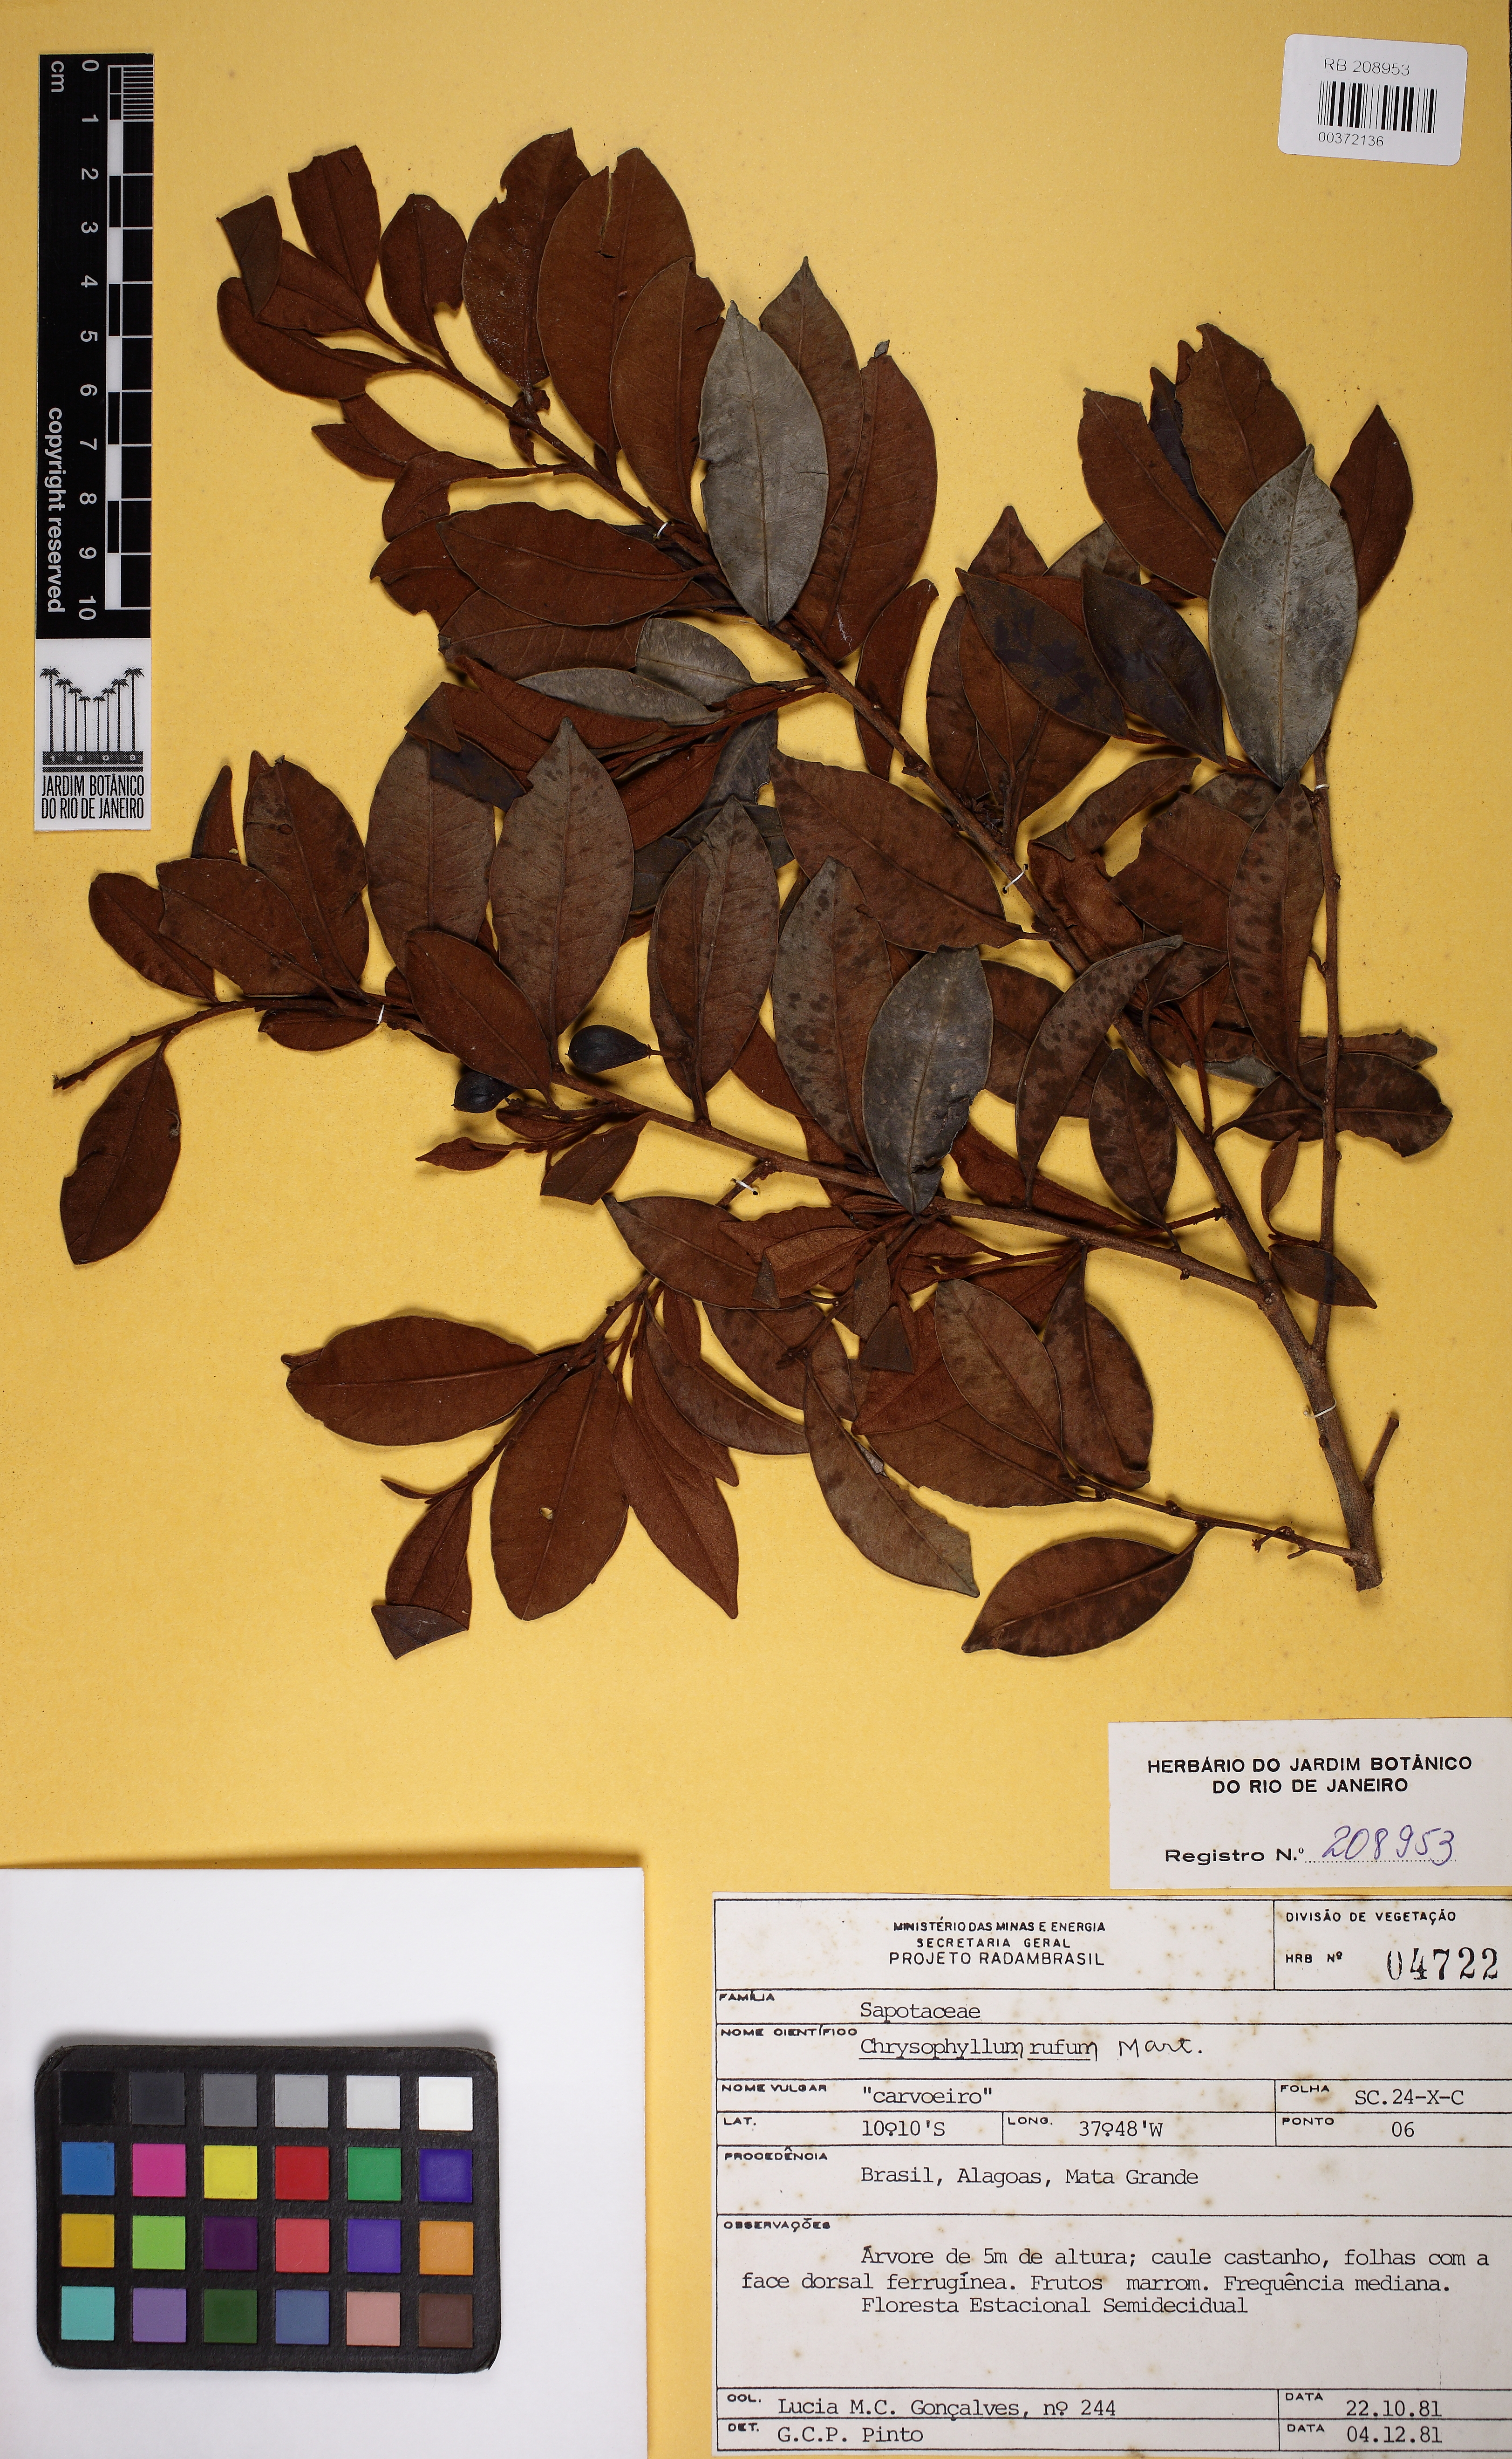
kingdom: Plantae
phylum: Tracheophyta
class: Magnoliopsida
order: Ericales
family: Sapotaceae
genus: Chrysophyllum
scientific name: Chrysophyllum rufum
